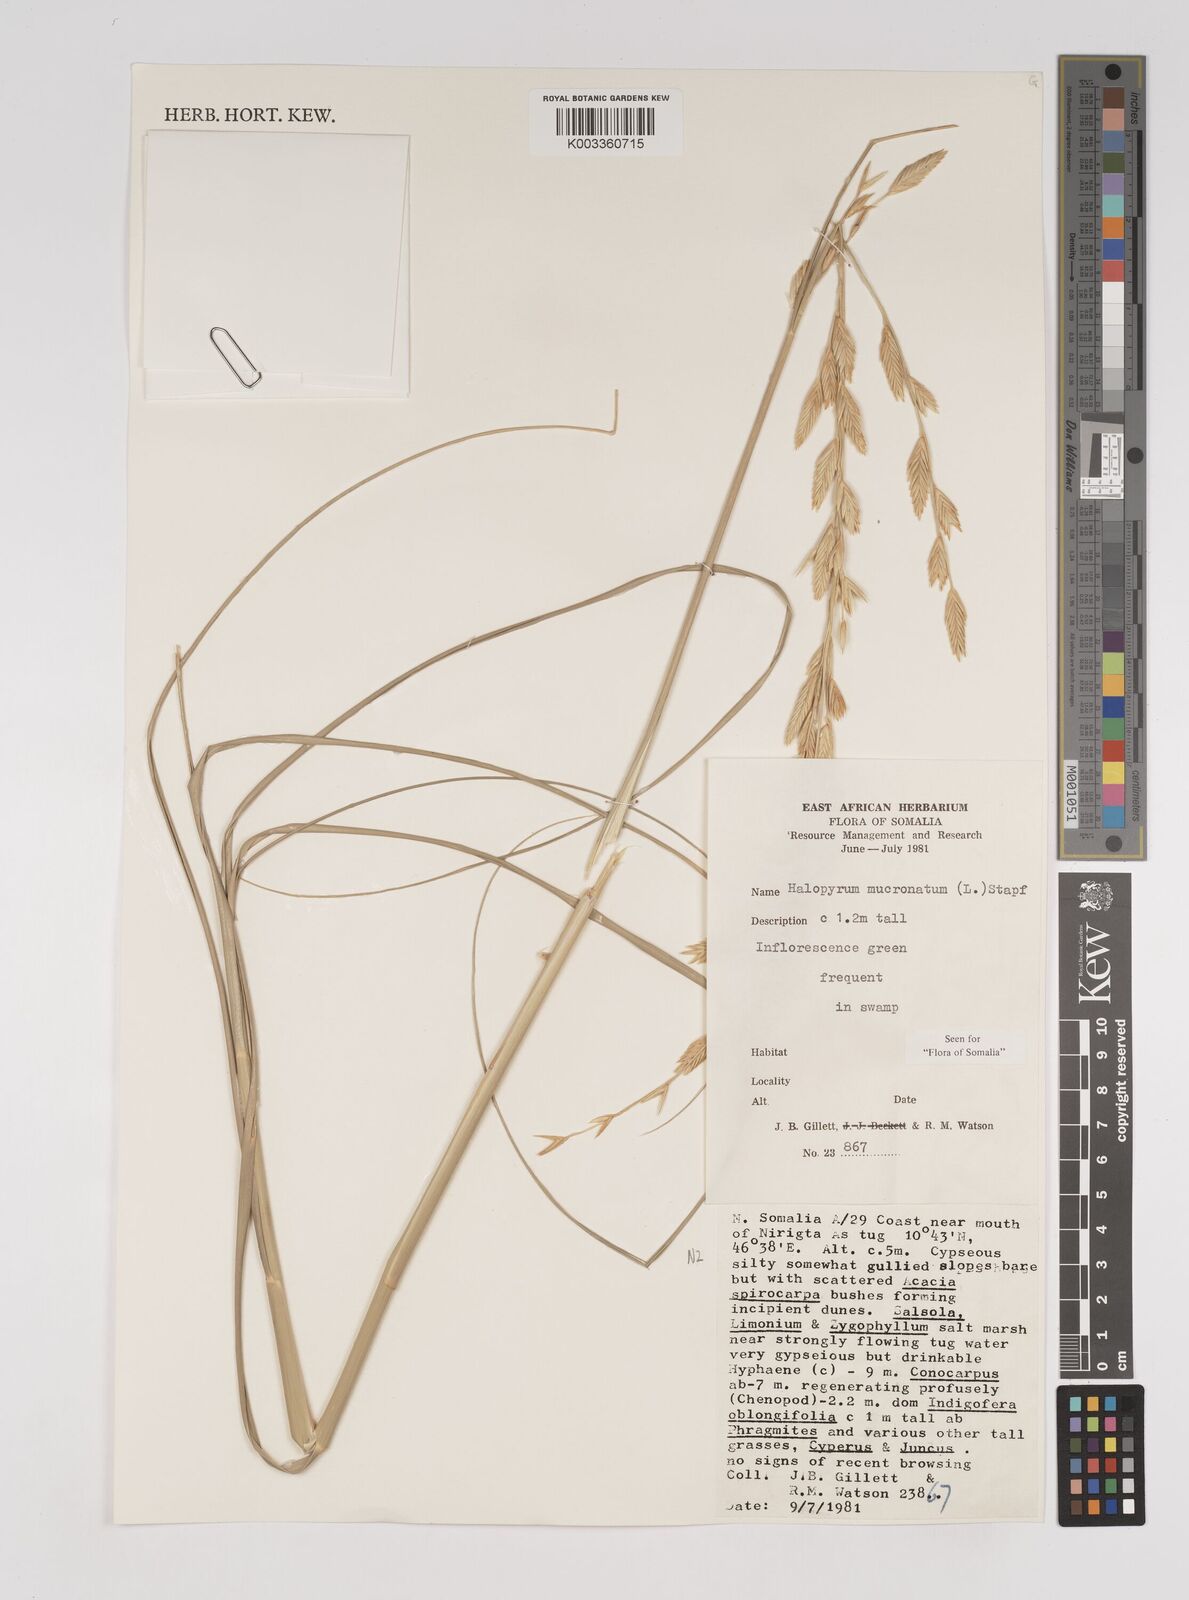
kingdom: Plantae
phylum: Tracheophyta
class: Liliopsida
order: Poales
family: Poaceae
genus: Halopyrum
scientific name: Halopyrum mucronatum
